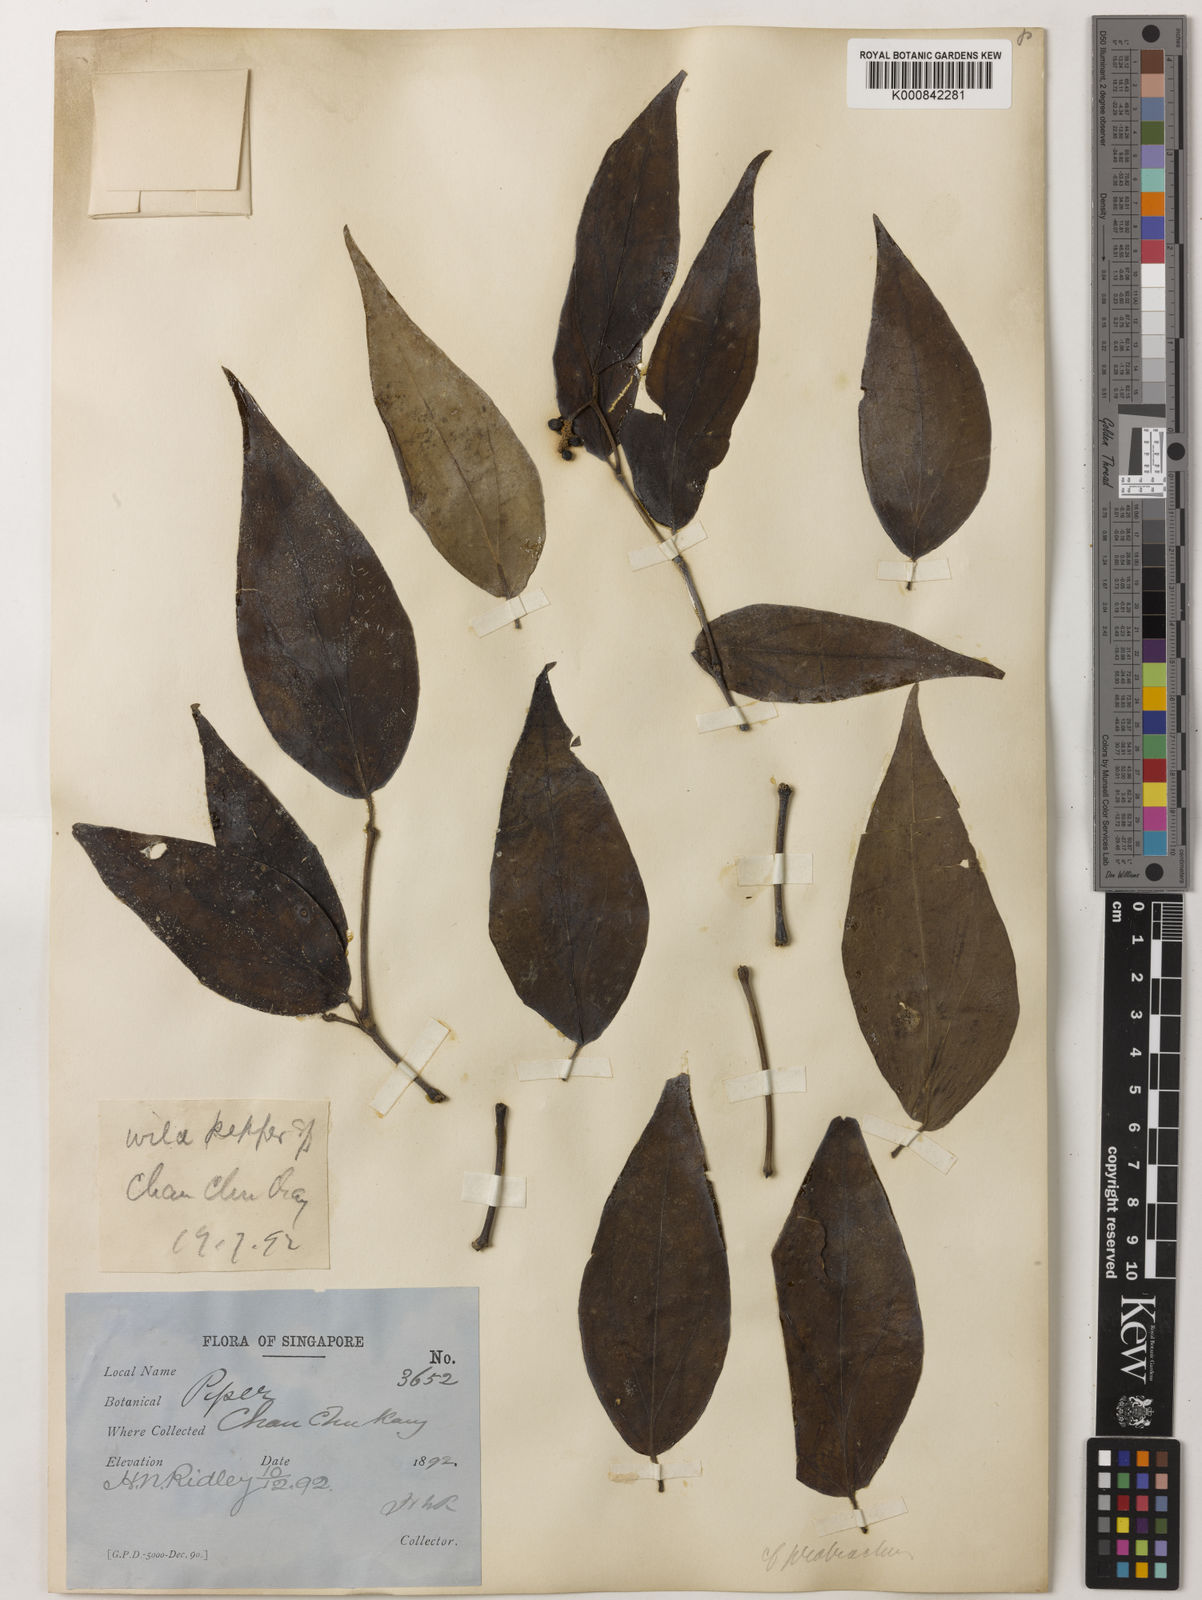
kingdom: Plantae
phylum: Tracheophyta
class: Magnoliopsida
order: Piperales
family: Piperaceae
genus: Piper
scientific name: Piper lanatum
